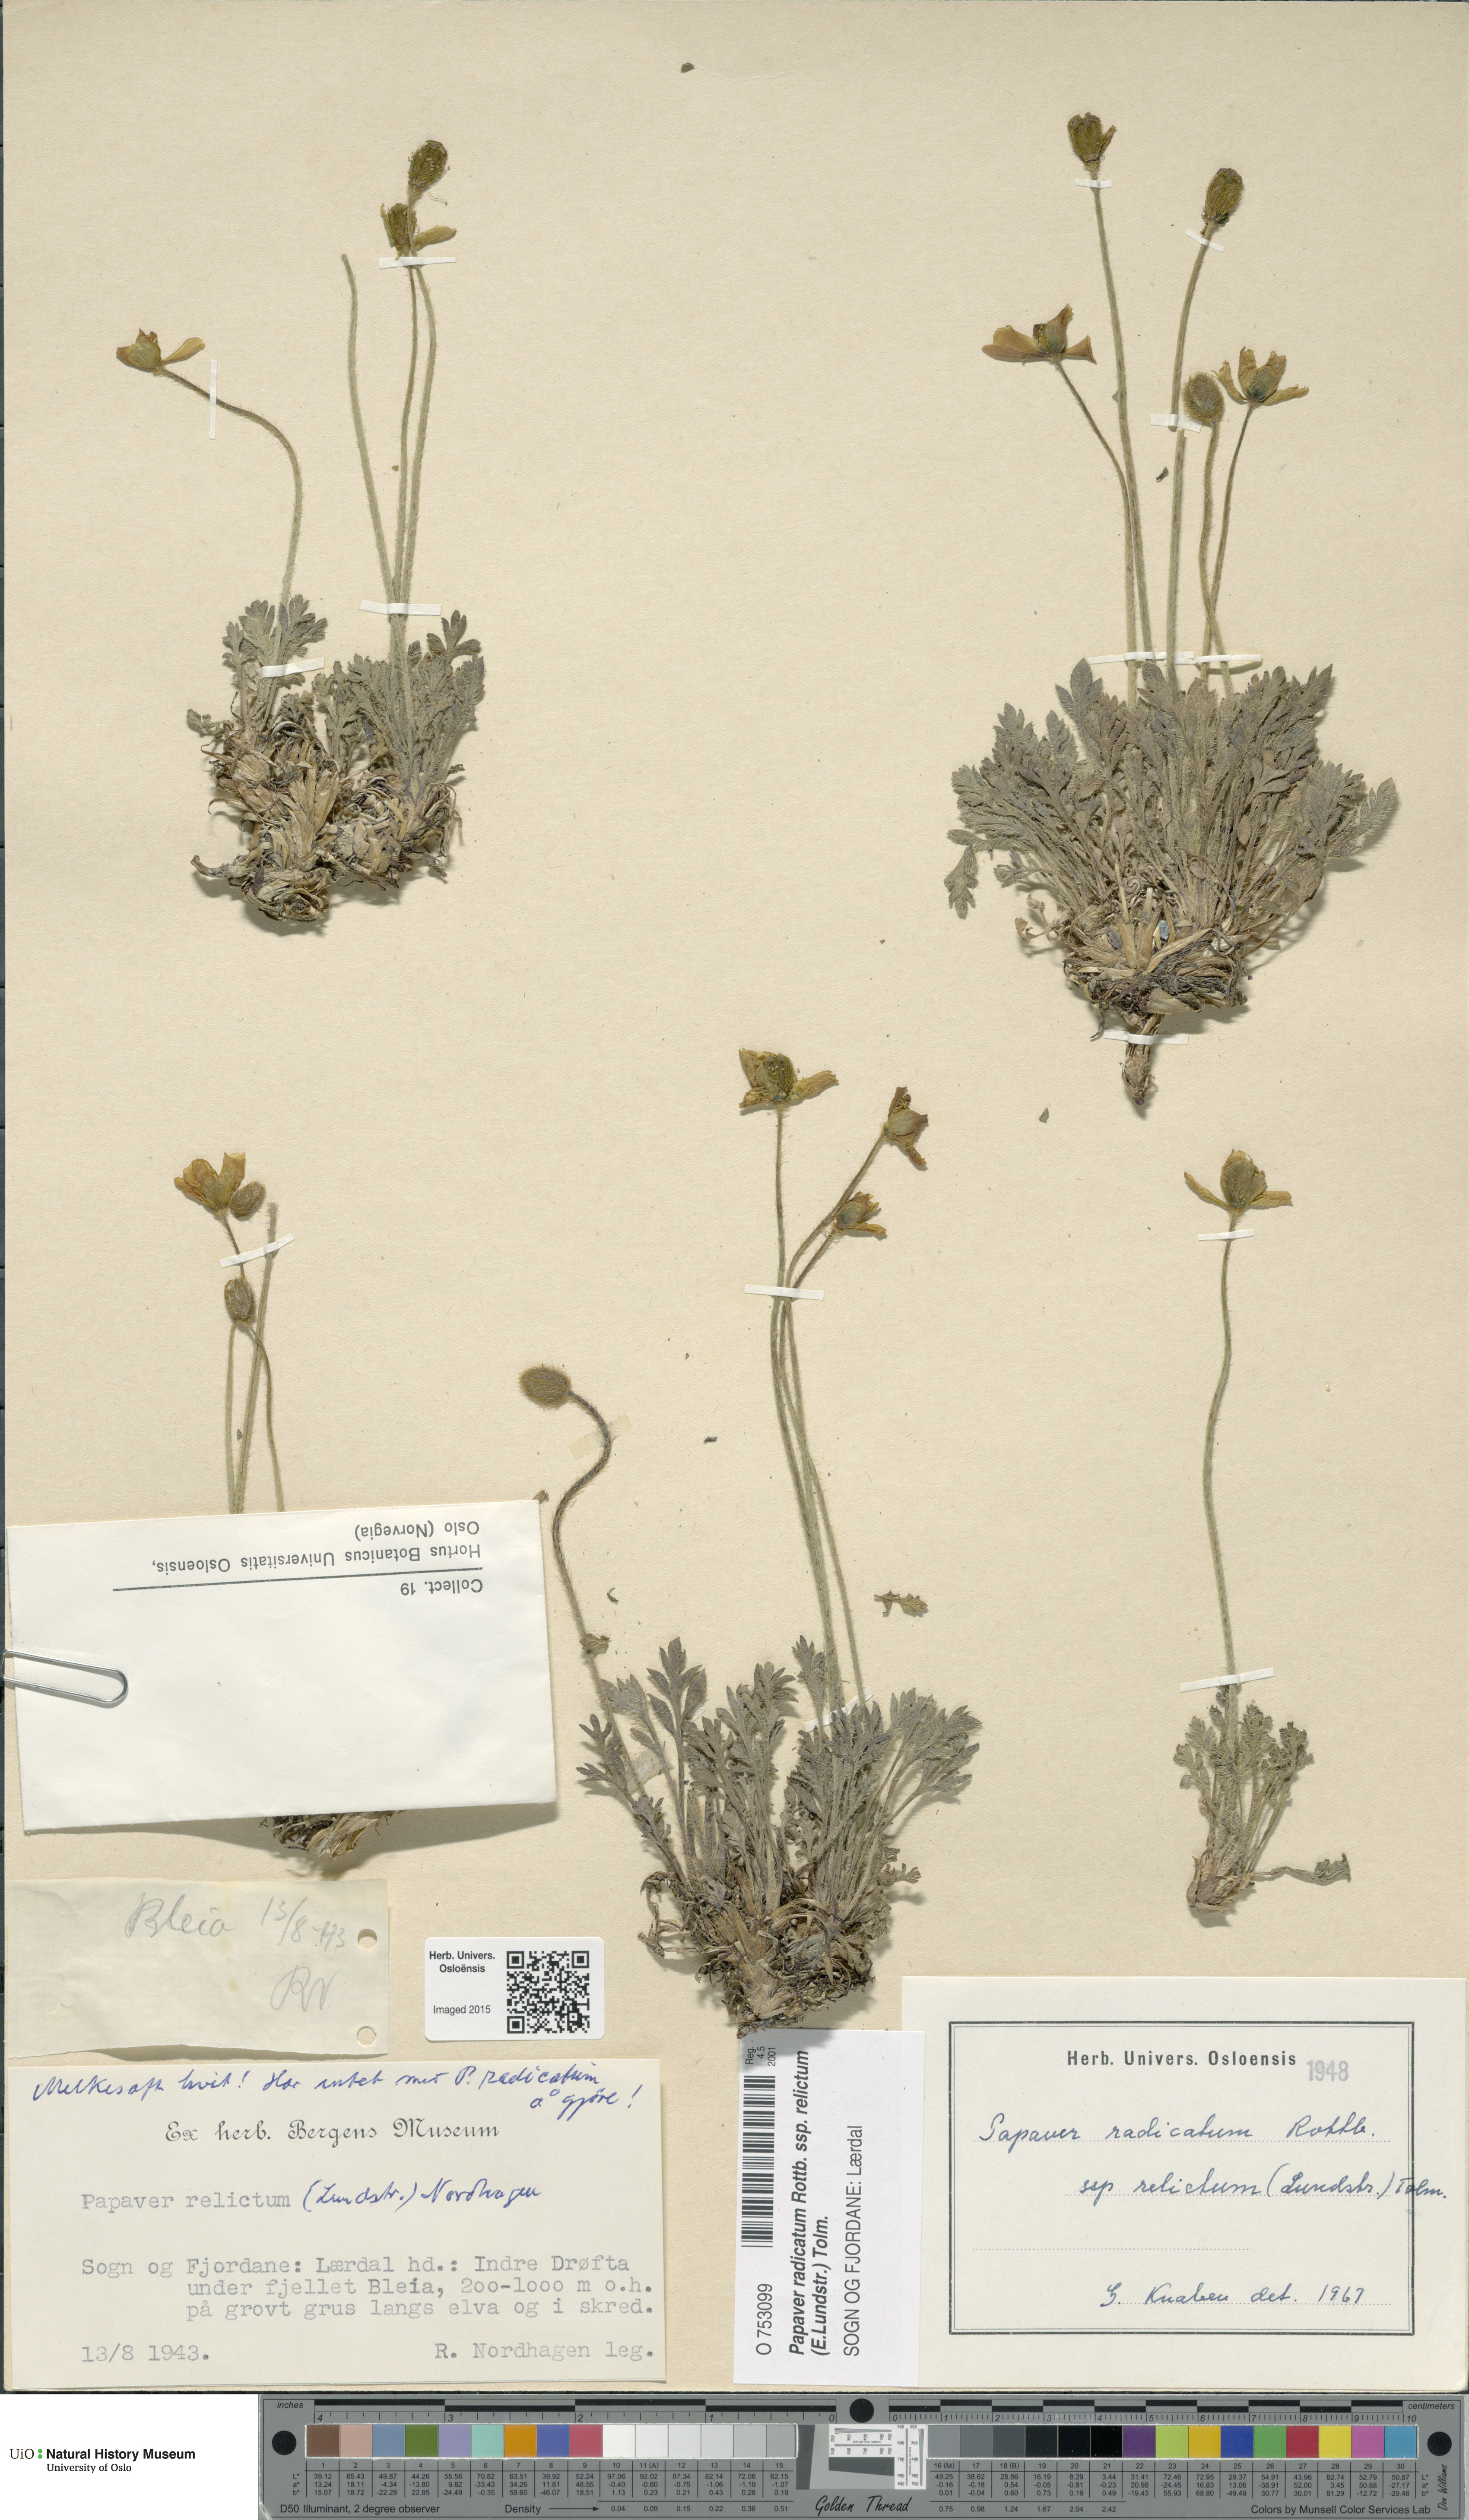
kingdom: Plantae
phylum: Tracheophyta
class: Magnoliopsida
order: Ranunculales
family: Papaveraceae
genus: Papaver
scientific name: Papaver radicatum
